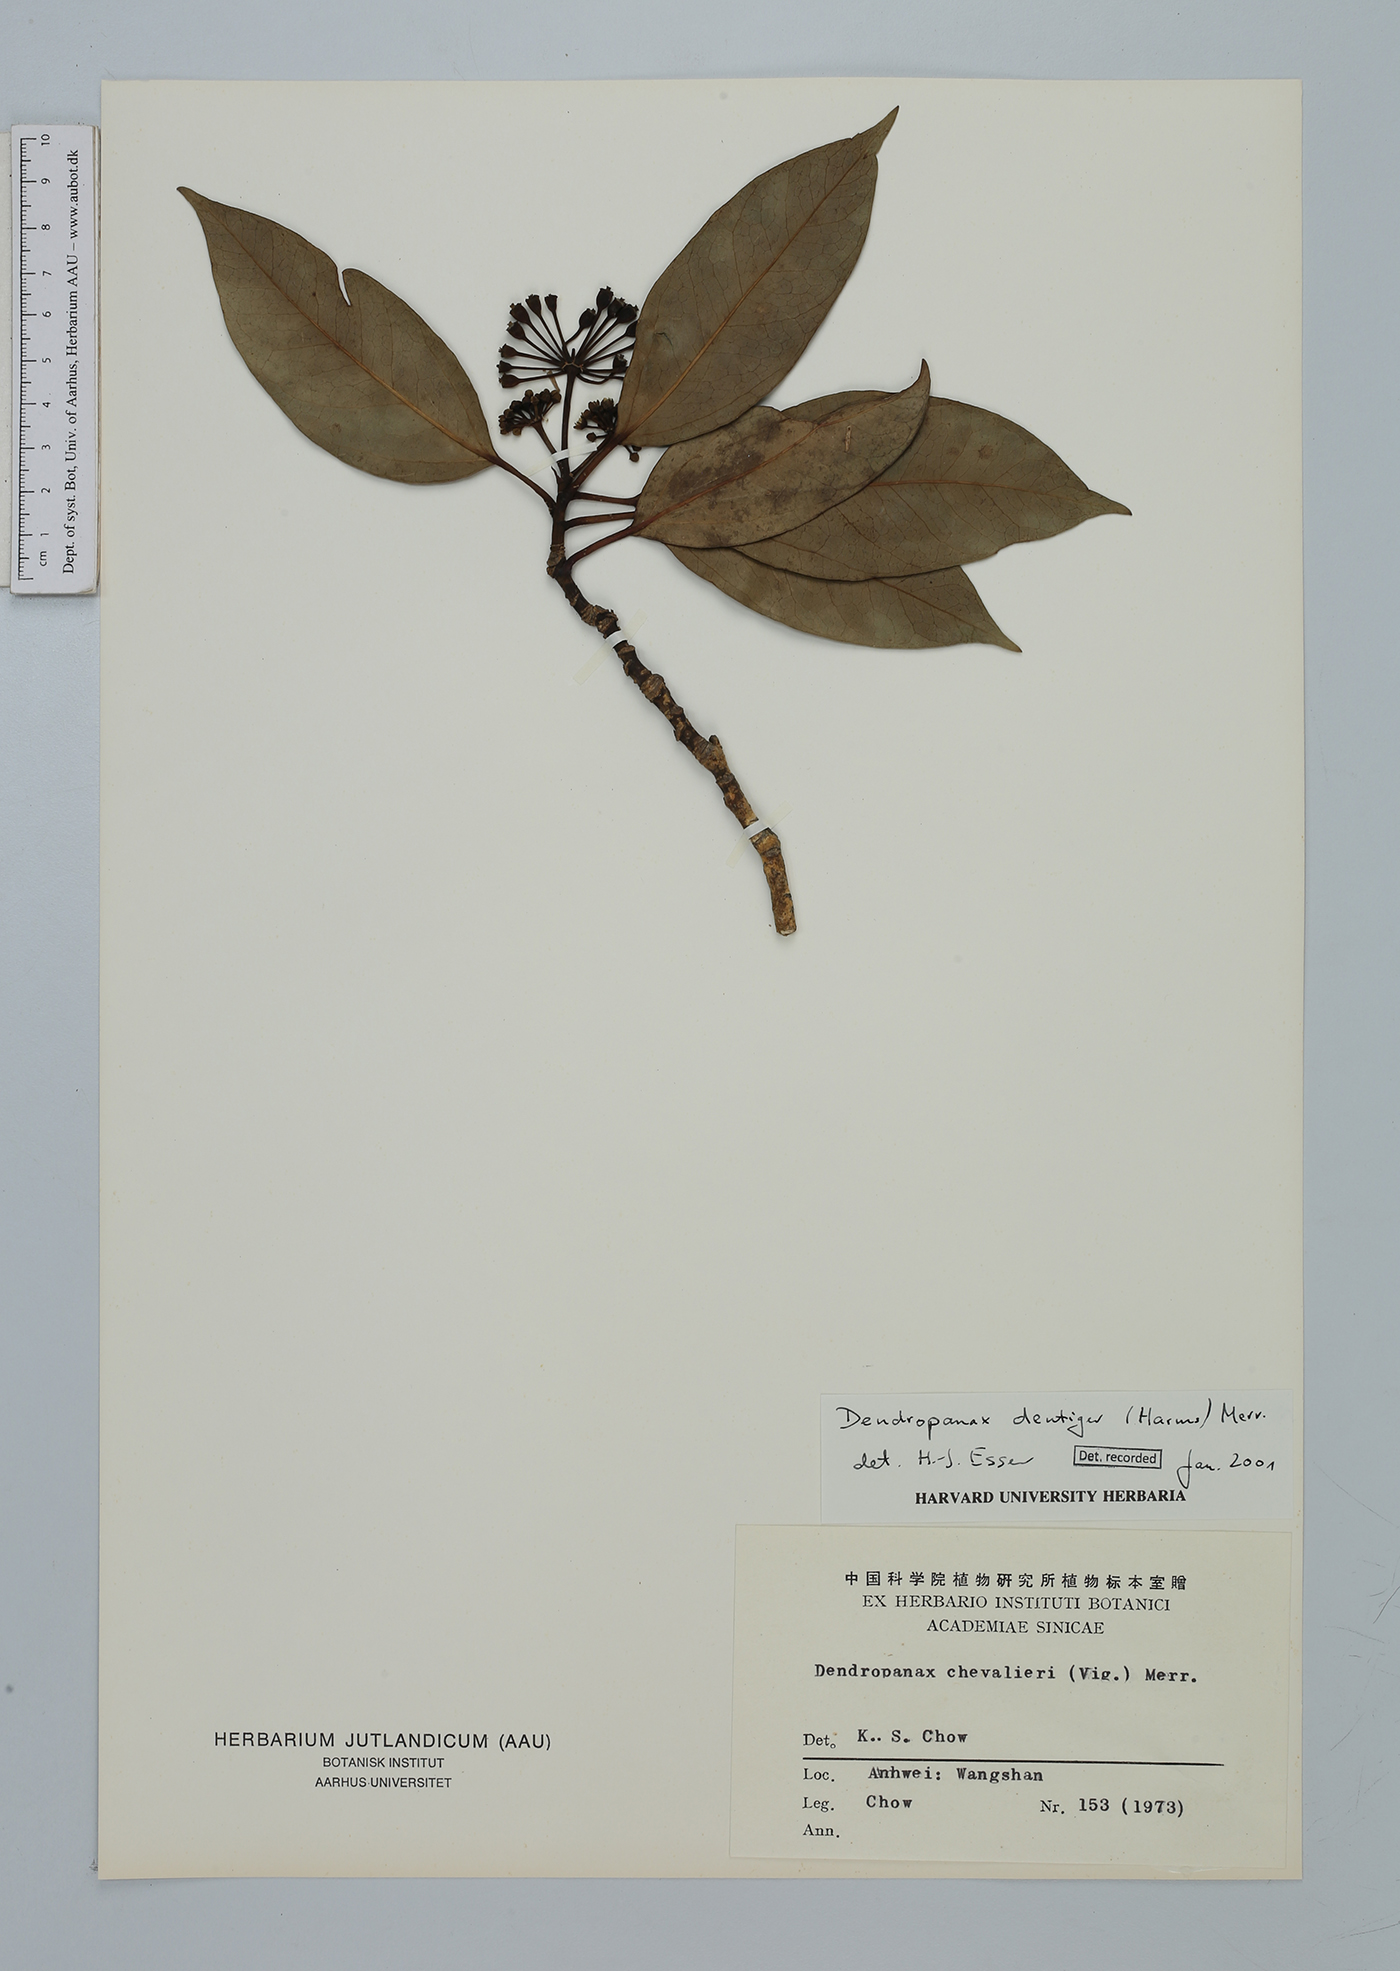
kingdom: Plantae
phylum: Tracheophyta
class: Magnoliopsida
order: Apiales
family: Araliaceae
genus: Dendropanax
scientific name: Dendropanax dentiger
